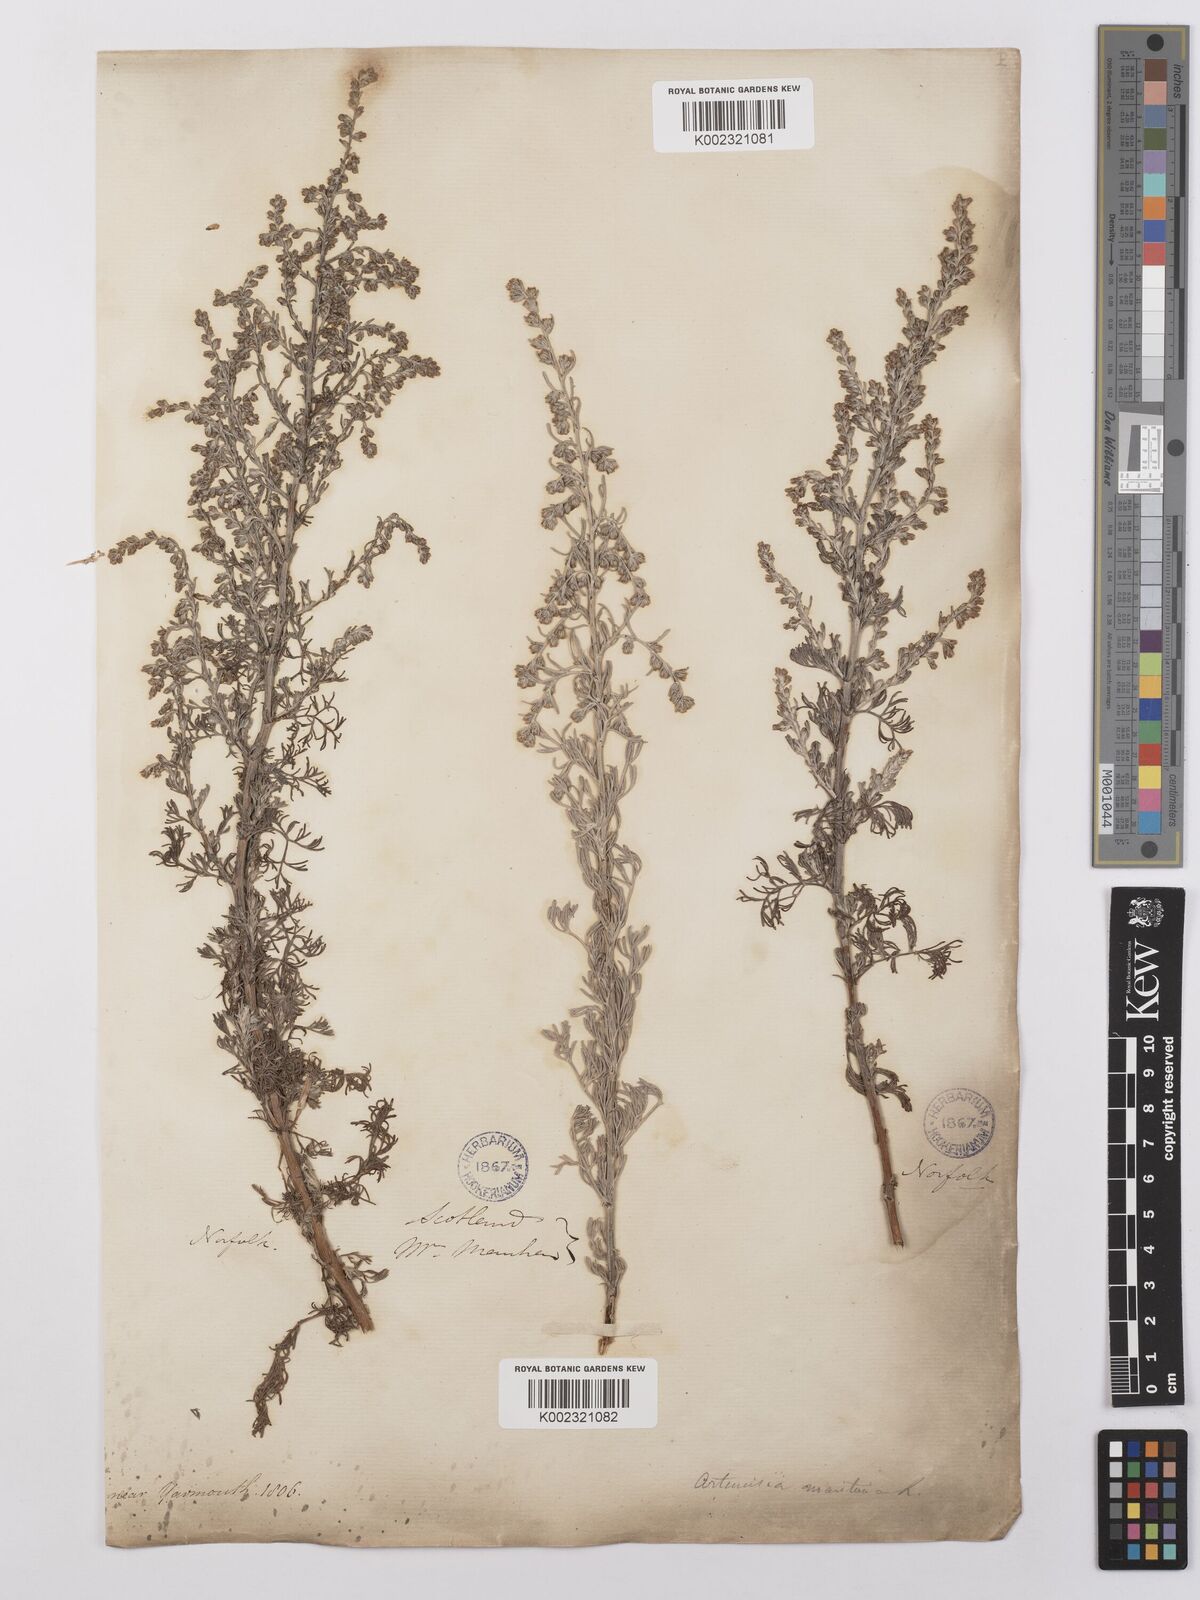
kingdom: Plantae
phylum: Tracheophyta
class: Magnoliopsida
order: Asterales
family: Asteraceae
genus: Artemisia
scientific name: Artemisia maritima
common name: Wormseed
